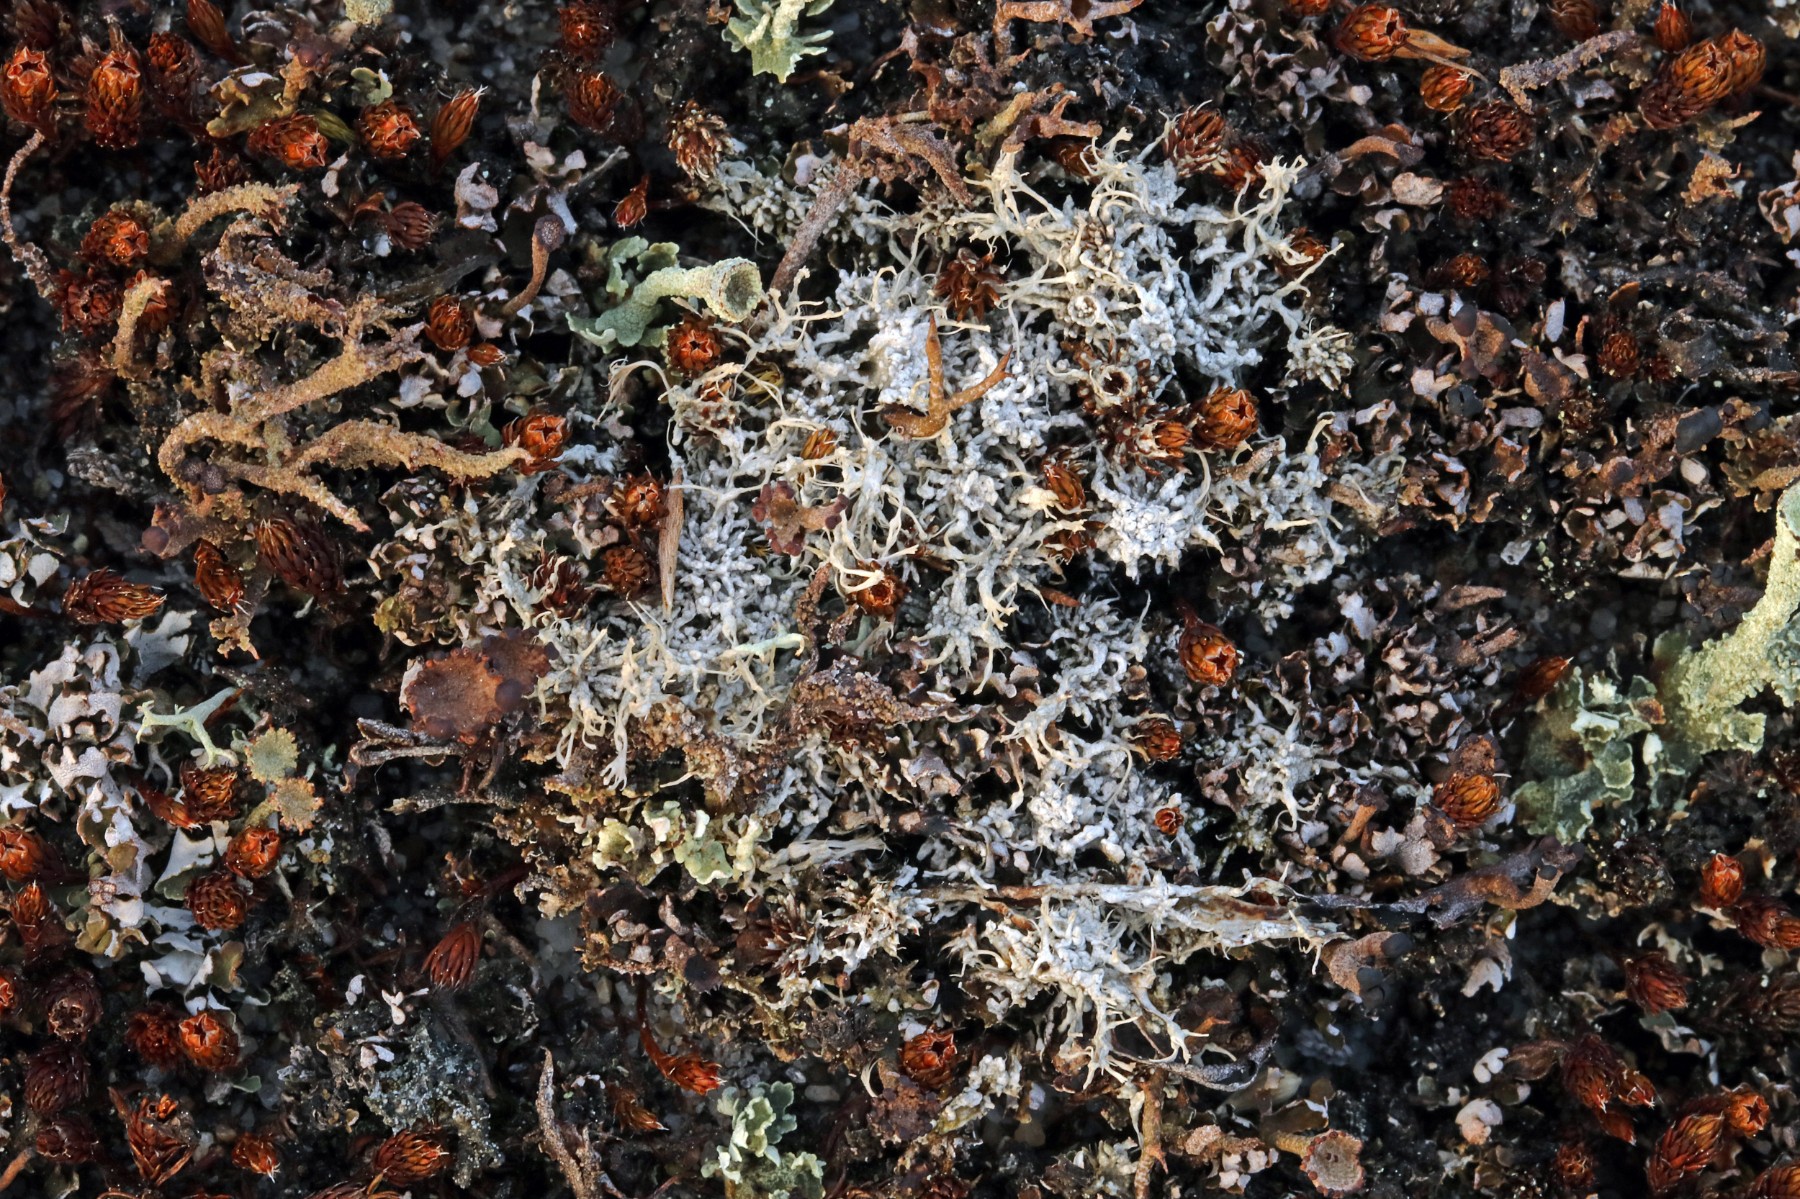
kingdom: Fungi
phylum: Ascomycota
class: Lecanoromycetes
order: Pertusariales
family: Ochrolechiaceae
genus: Ochrolechia
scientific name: Ochrolechia frigida
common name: fjeld-blegskivelav
